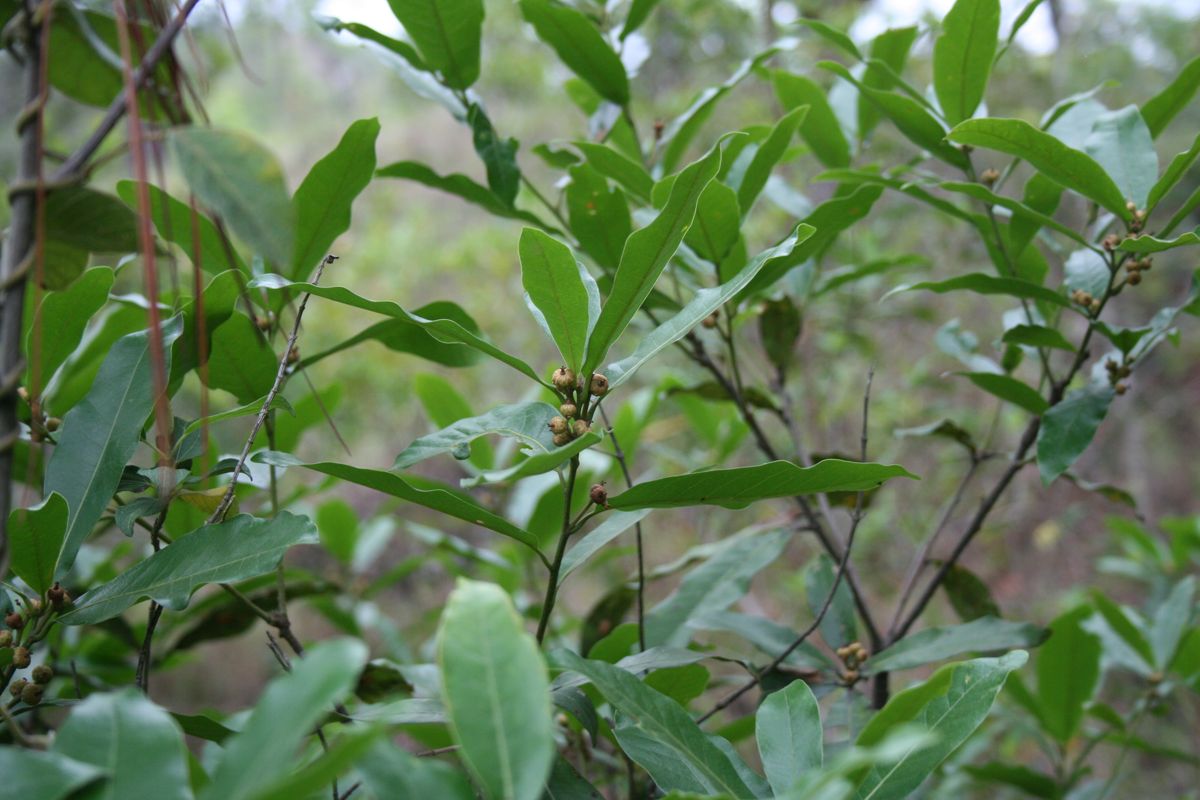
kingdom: Plantae
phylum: Tracheophyta
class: Magnoliopsida
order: Fagales
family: Fagaceae
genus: Quercus
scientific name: Quercus sapotifolia
